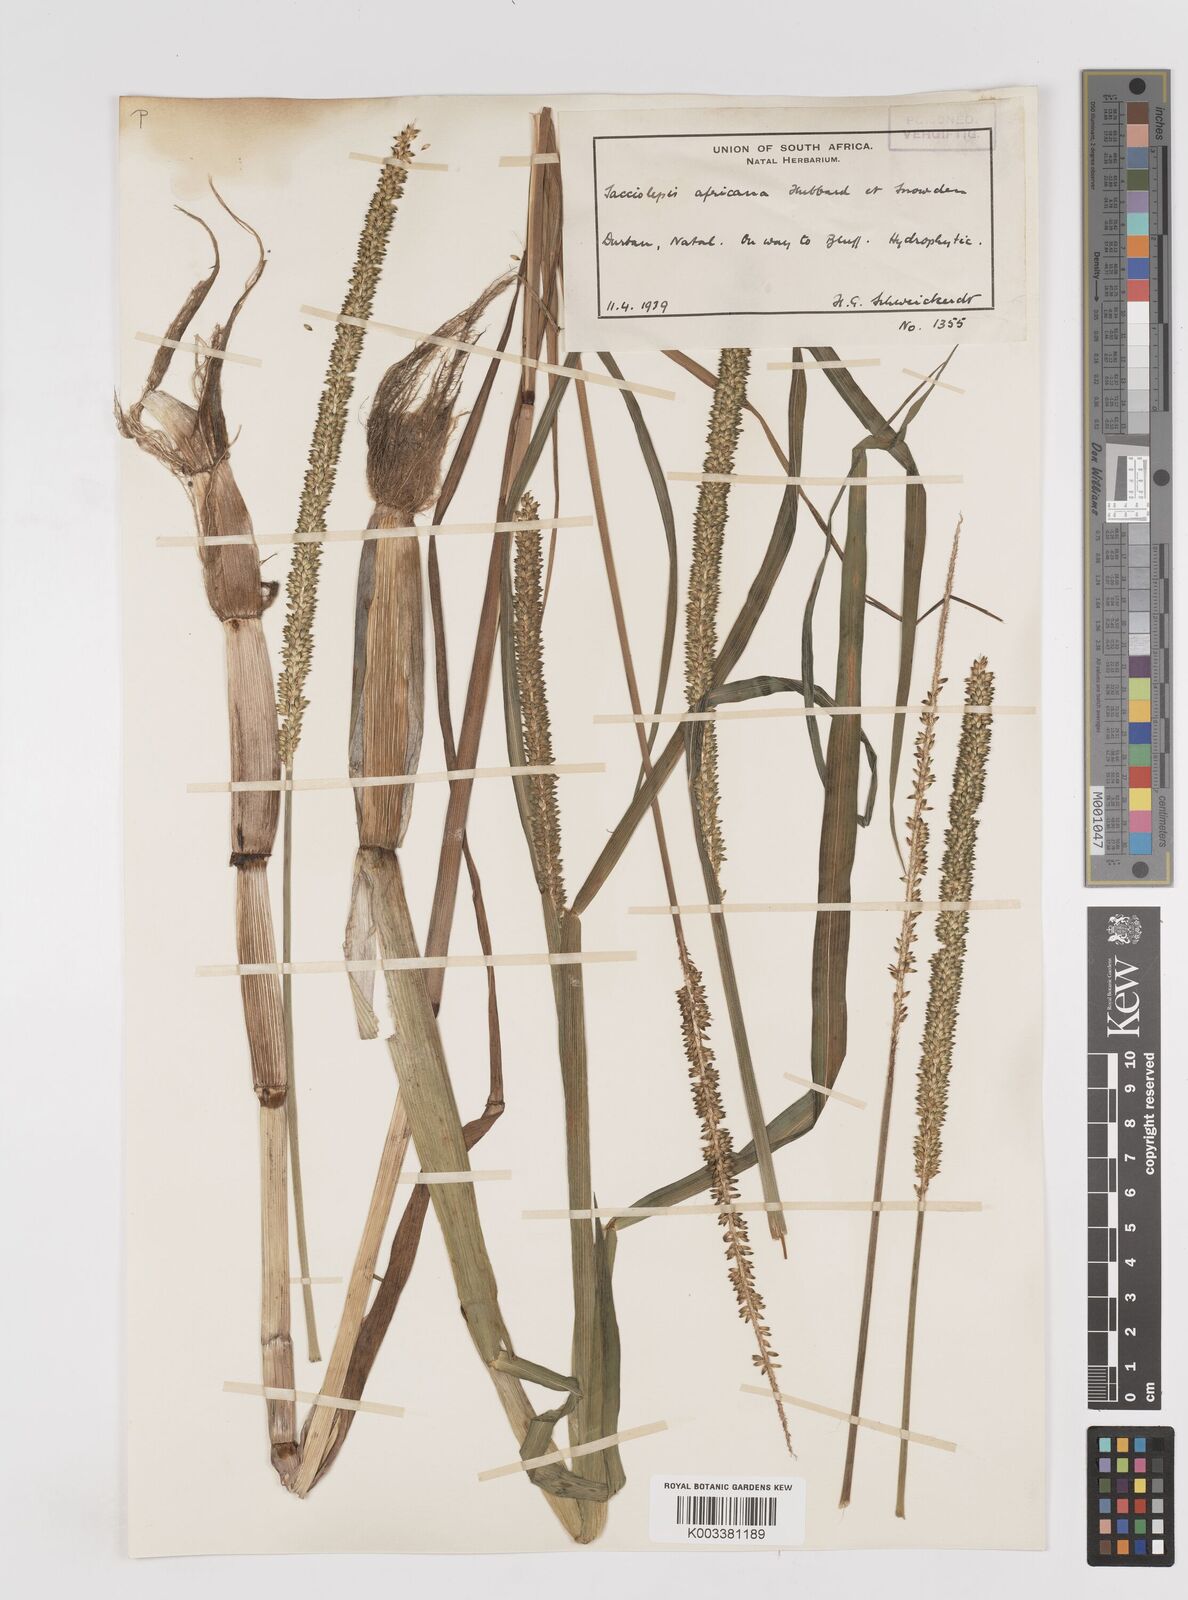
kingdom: Plantae
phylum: Tracheophyta
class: Liliopsida
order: Poales
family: Poaceae
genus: Sacciolepis
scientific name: Sacciolepis africana
